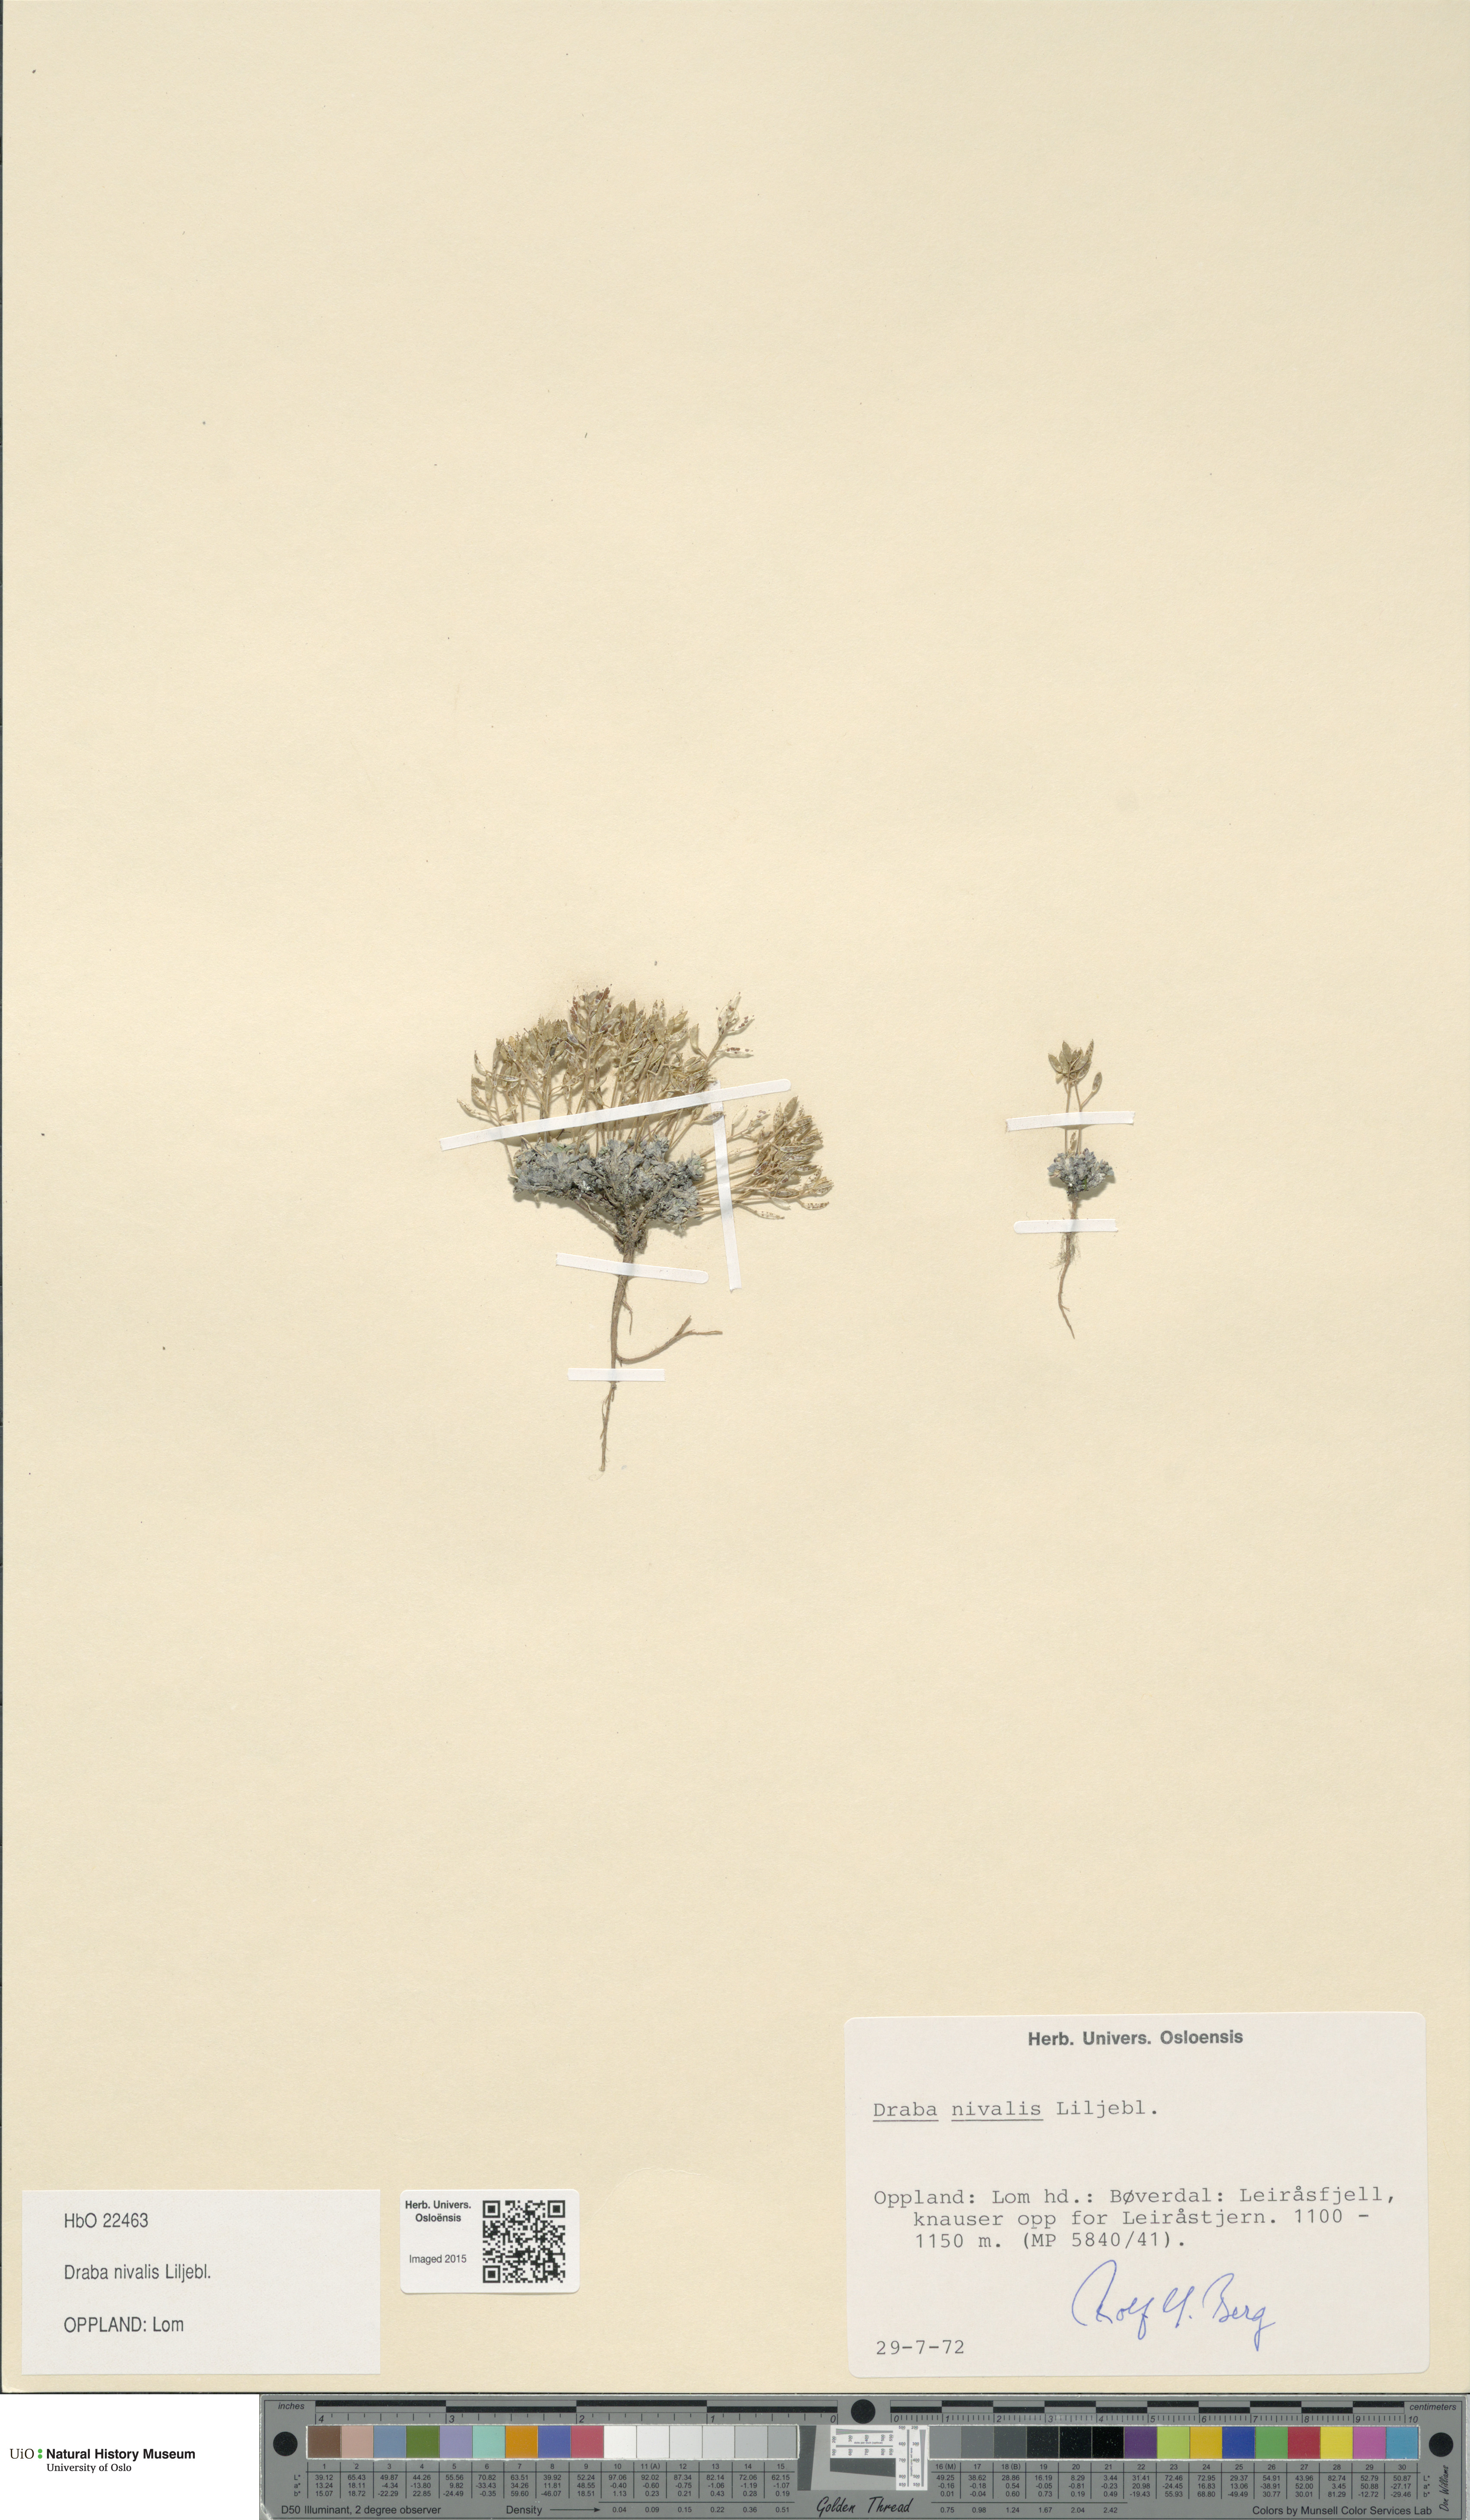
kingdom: Plantae
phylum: Tracheophyta
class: Magnoliopsida
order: Brassicales
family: Brassicaceae
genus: Draba
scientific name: Draba nivalis
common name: Snow draba
